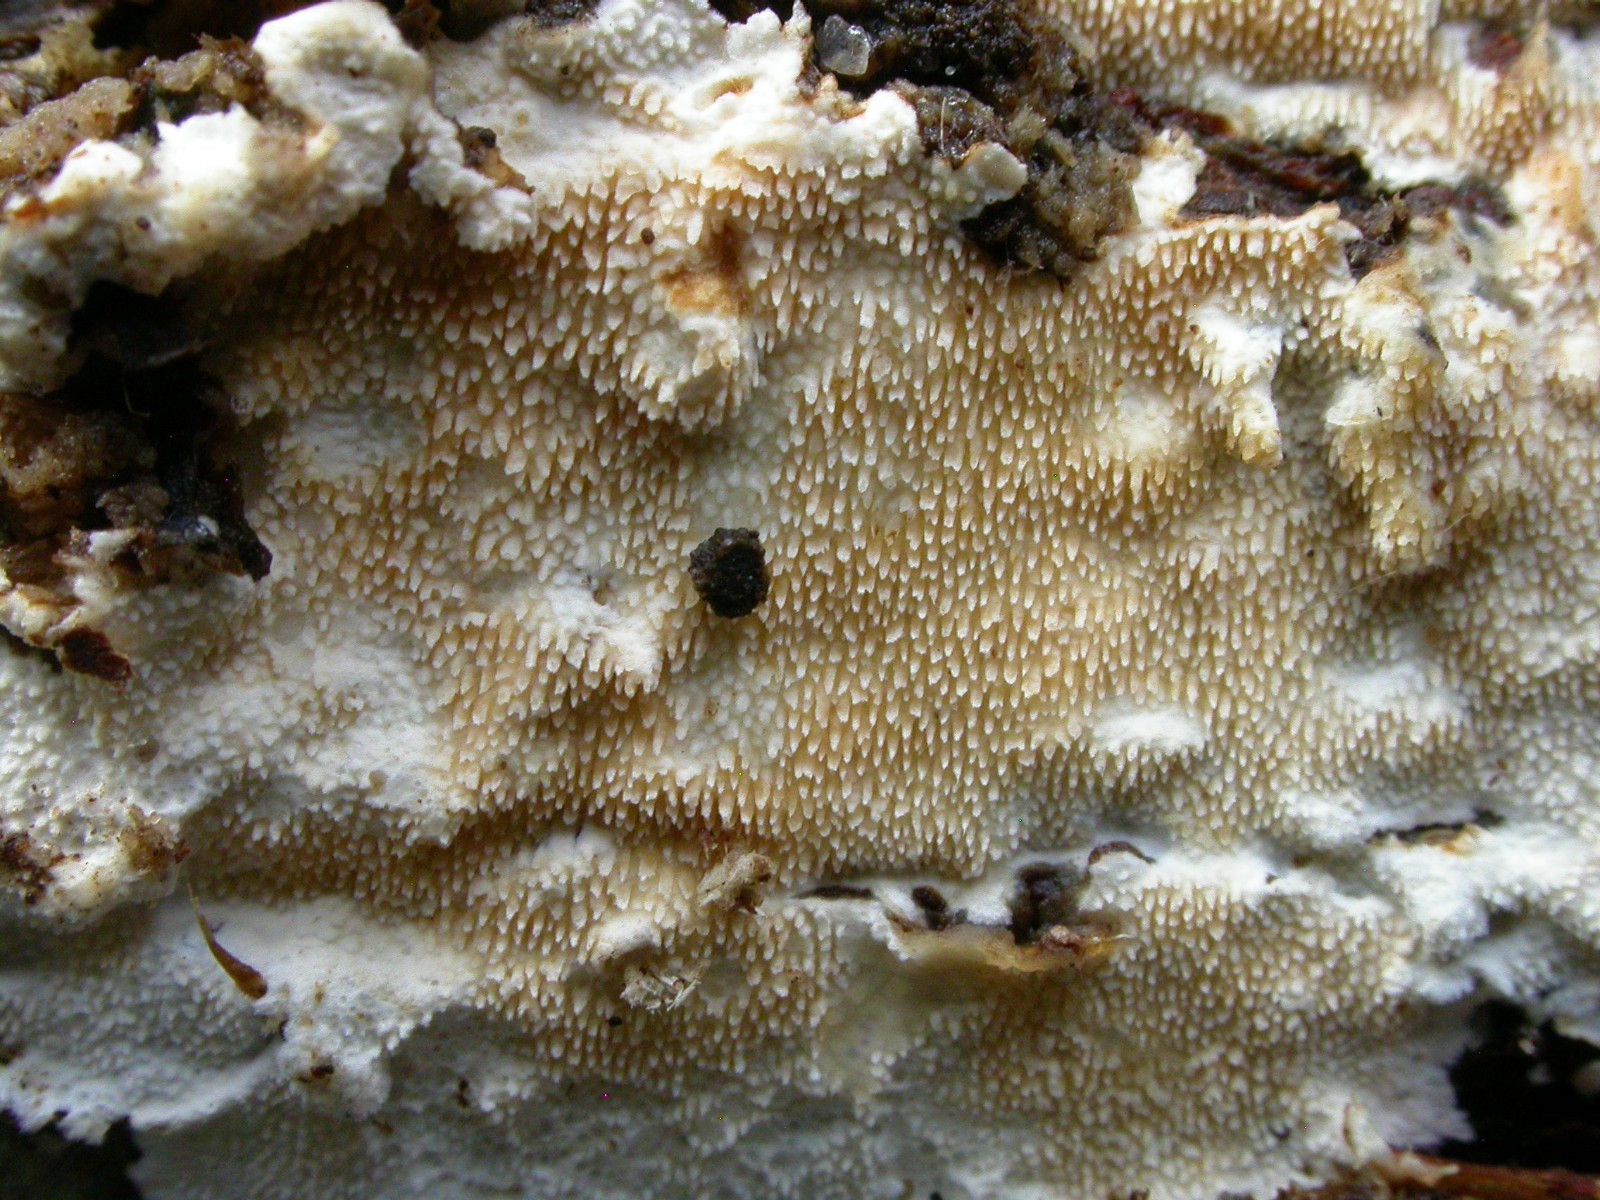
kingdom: Fungi
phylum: Basidiomycota
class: Agaricomycetes
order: Polyporales
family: Steccherinaceae
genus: Steccherinum
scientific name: Steccherinum ochraceum
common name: almindelig skønpig
